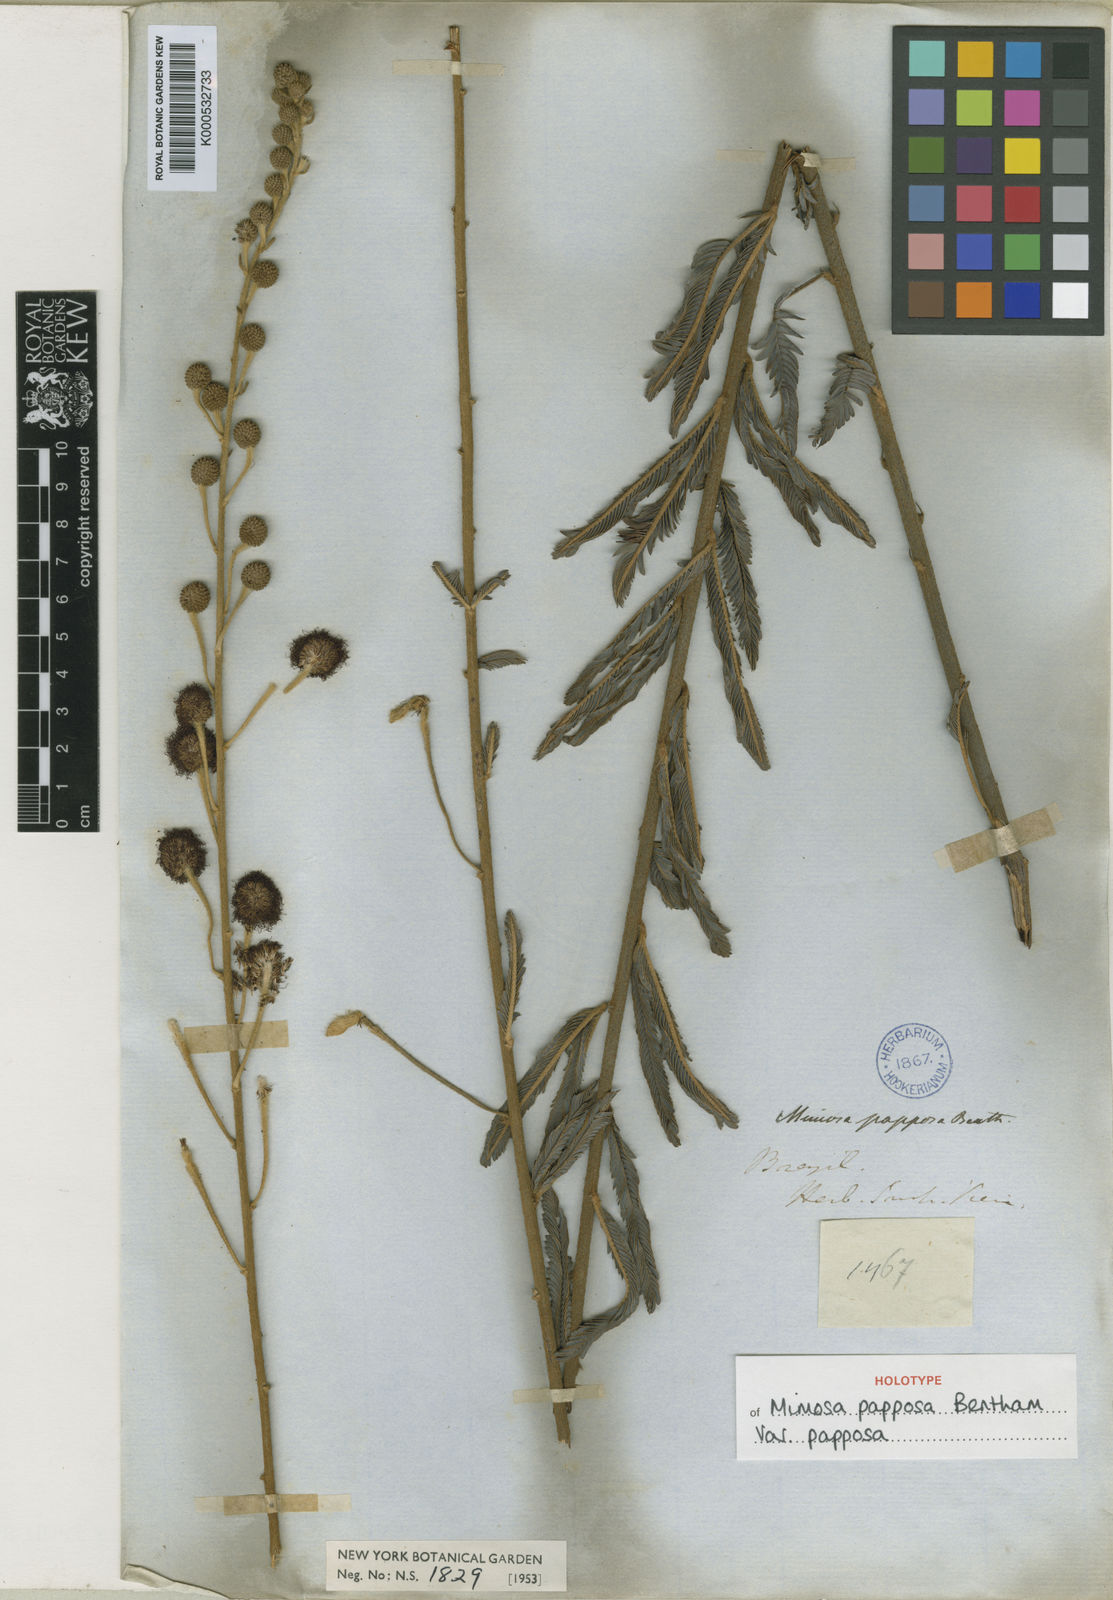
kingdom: Plantae
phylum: Tracheophyta
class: Magnoliopsida
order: Fabales
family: Fabaceae
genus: Mimosa
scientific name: Mimosa papposa
